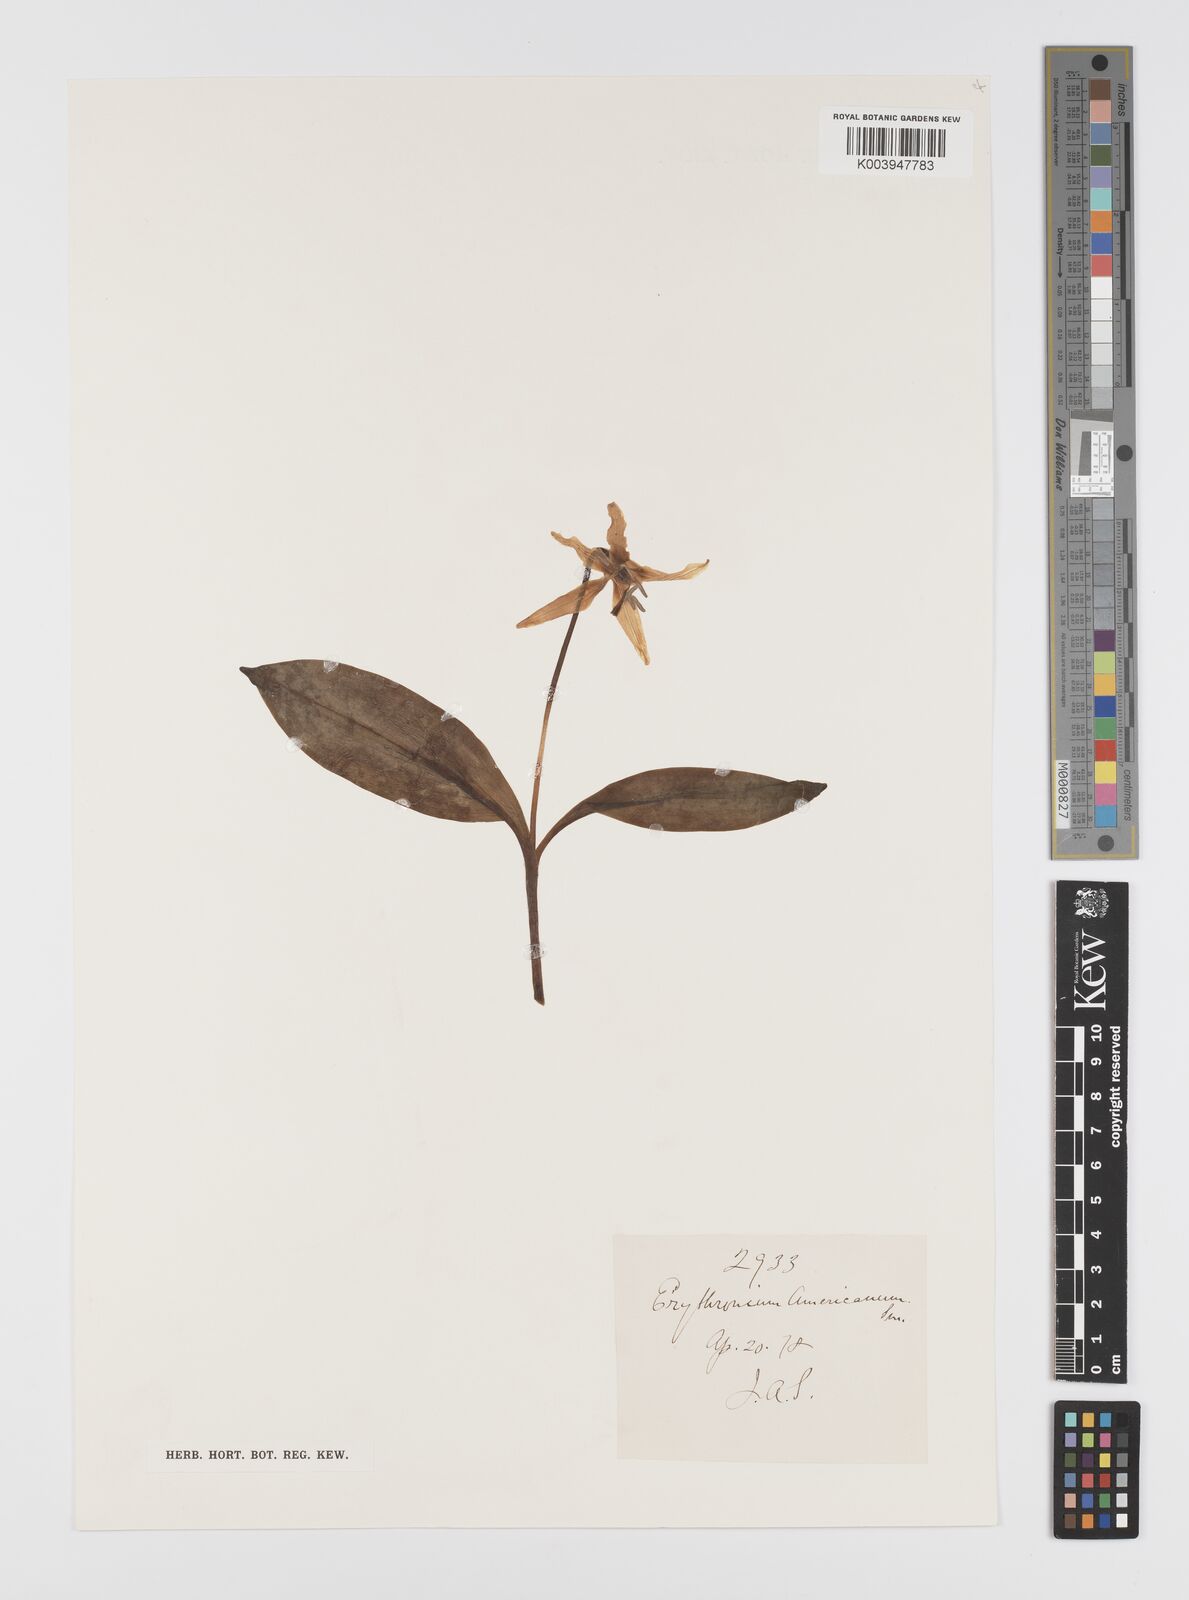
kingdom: Plantae
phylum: Tracheophyta
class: Liliopsida
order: Liliales
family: Liliaceae
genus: Erythronium
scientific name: Erythronium americanum
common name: Yellow adder's-tongue
